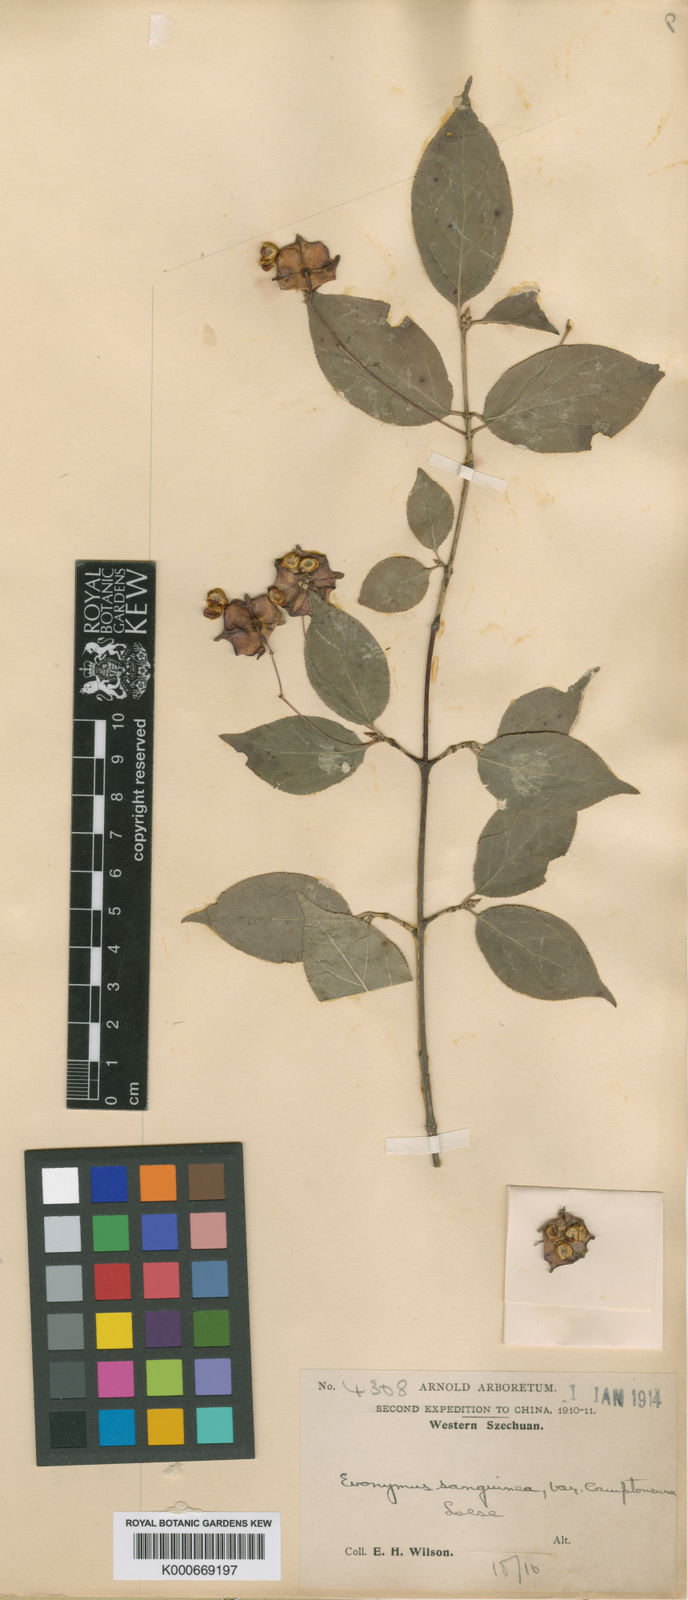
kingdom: Plantae
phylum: Tracheophyta
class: Magnoliopsida
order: Celastrales
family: Celastraceae
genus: Euonymus
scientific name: Euonymus sanguineus
